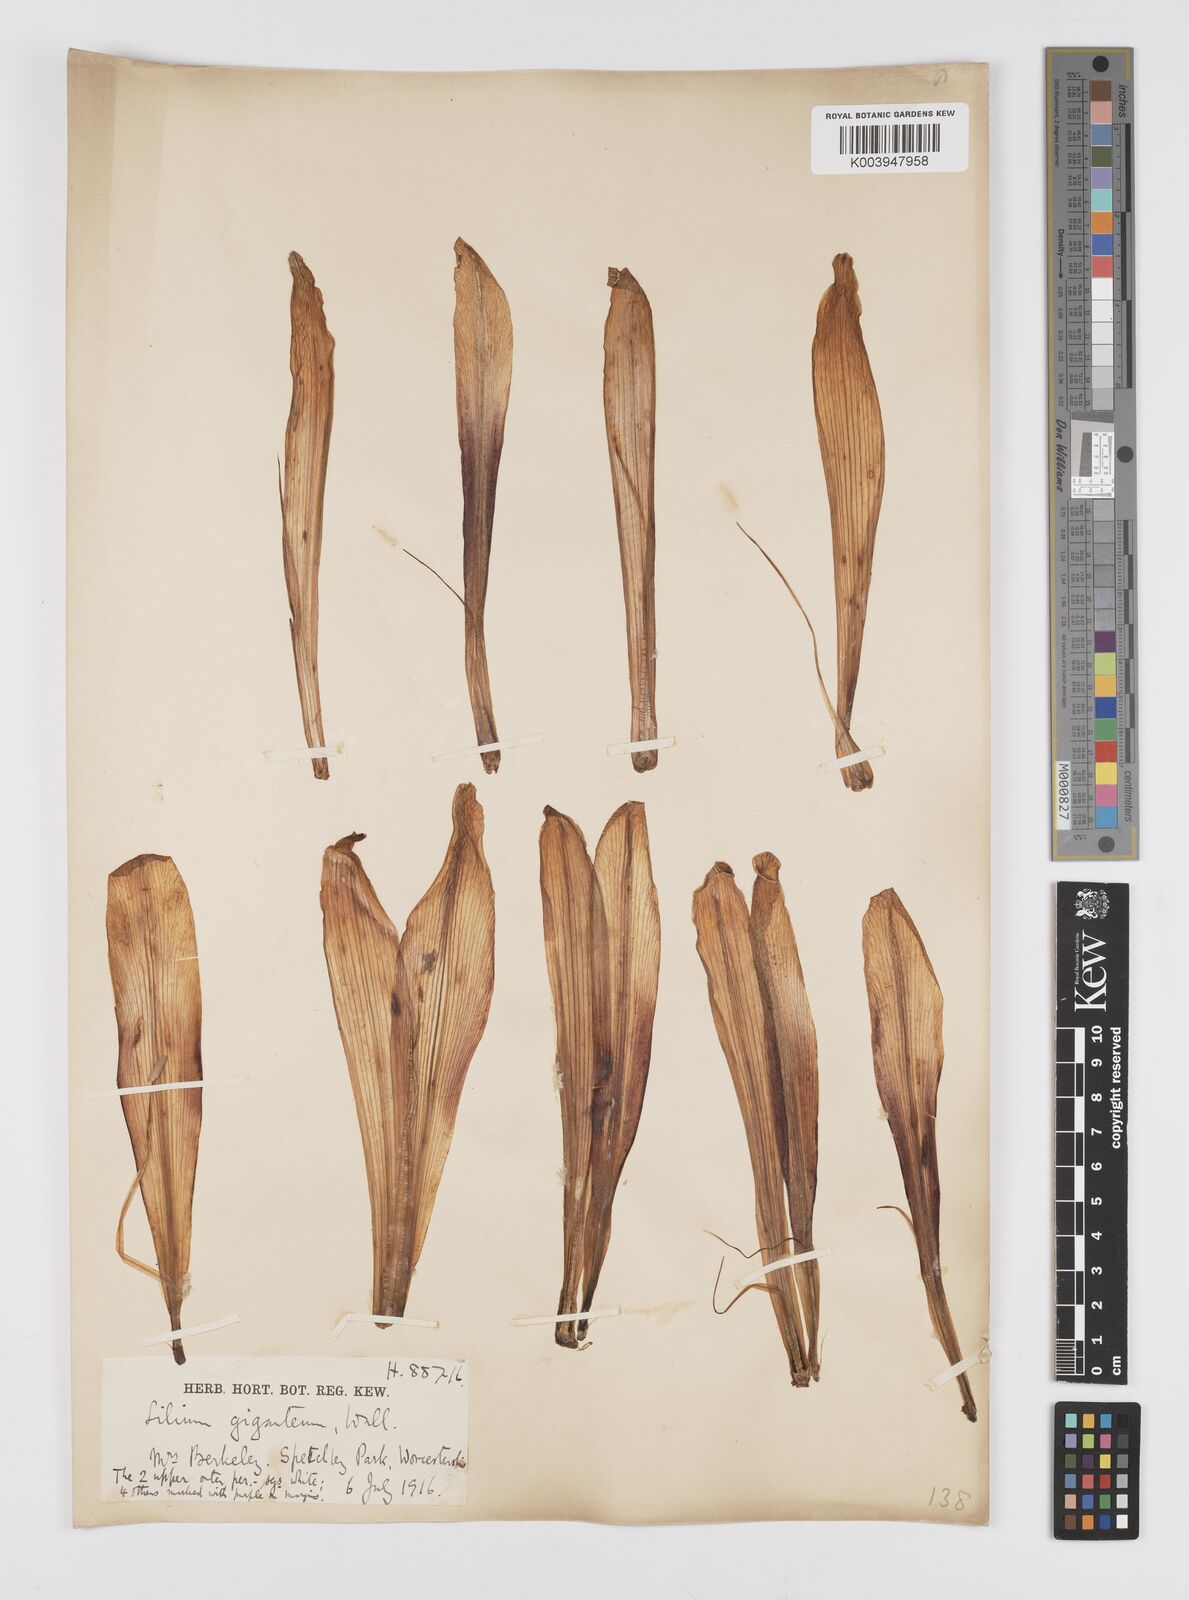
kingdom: Plantae
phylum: Tracheophyta
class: Liliopsida
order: Liliales
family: Liliaceae
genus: Cardiocrinum
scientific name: Cardiocrinum giganteum
